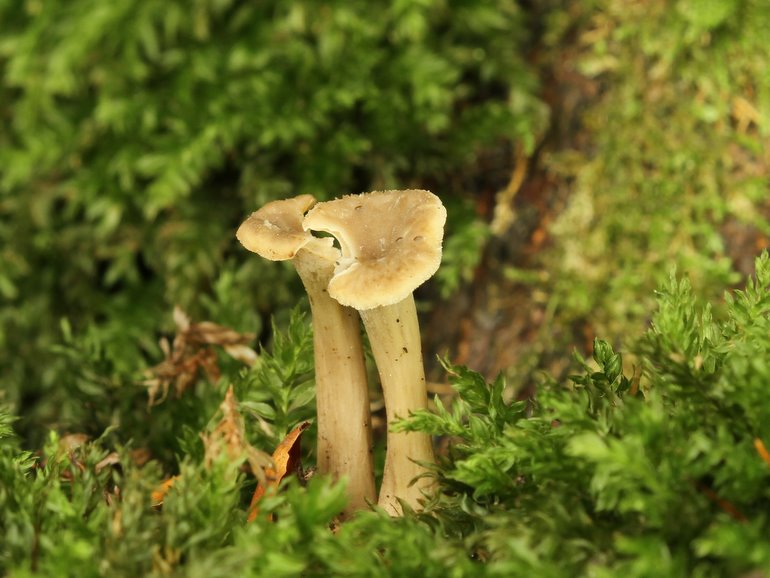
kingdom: Fungi
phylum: Basidiomycota
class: Agaricomycetes
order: Cantharellales
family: Hydnaceae
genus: Craterellus
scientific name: Craterellus undulatus
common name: liden kantarel
